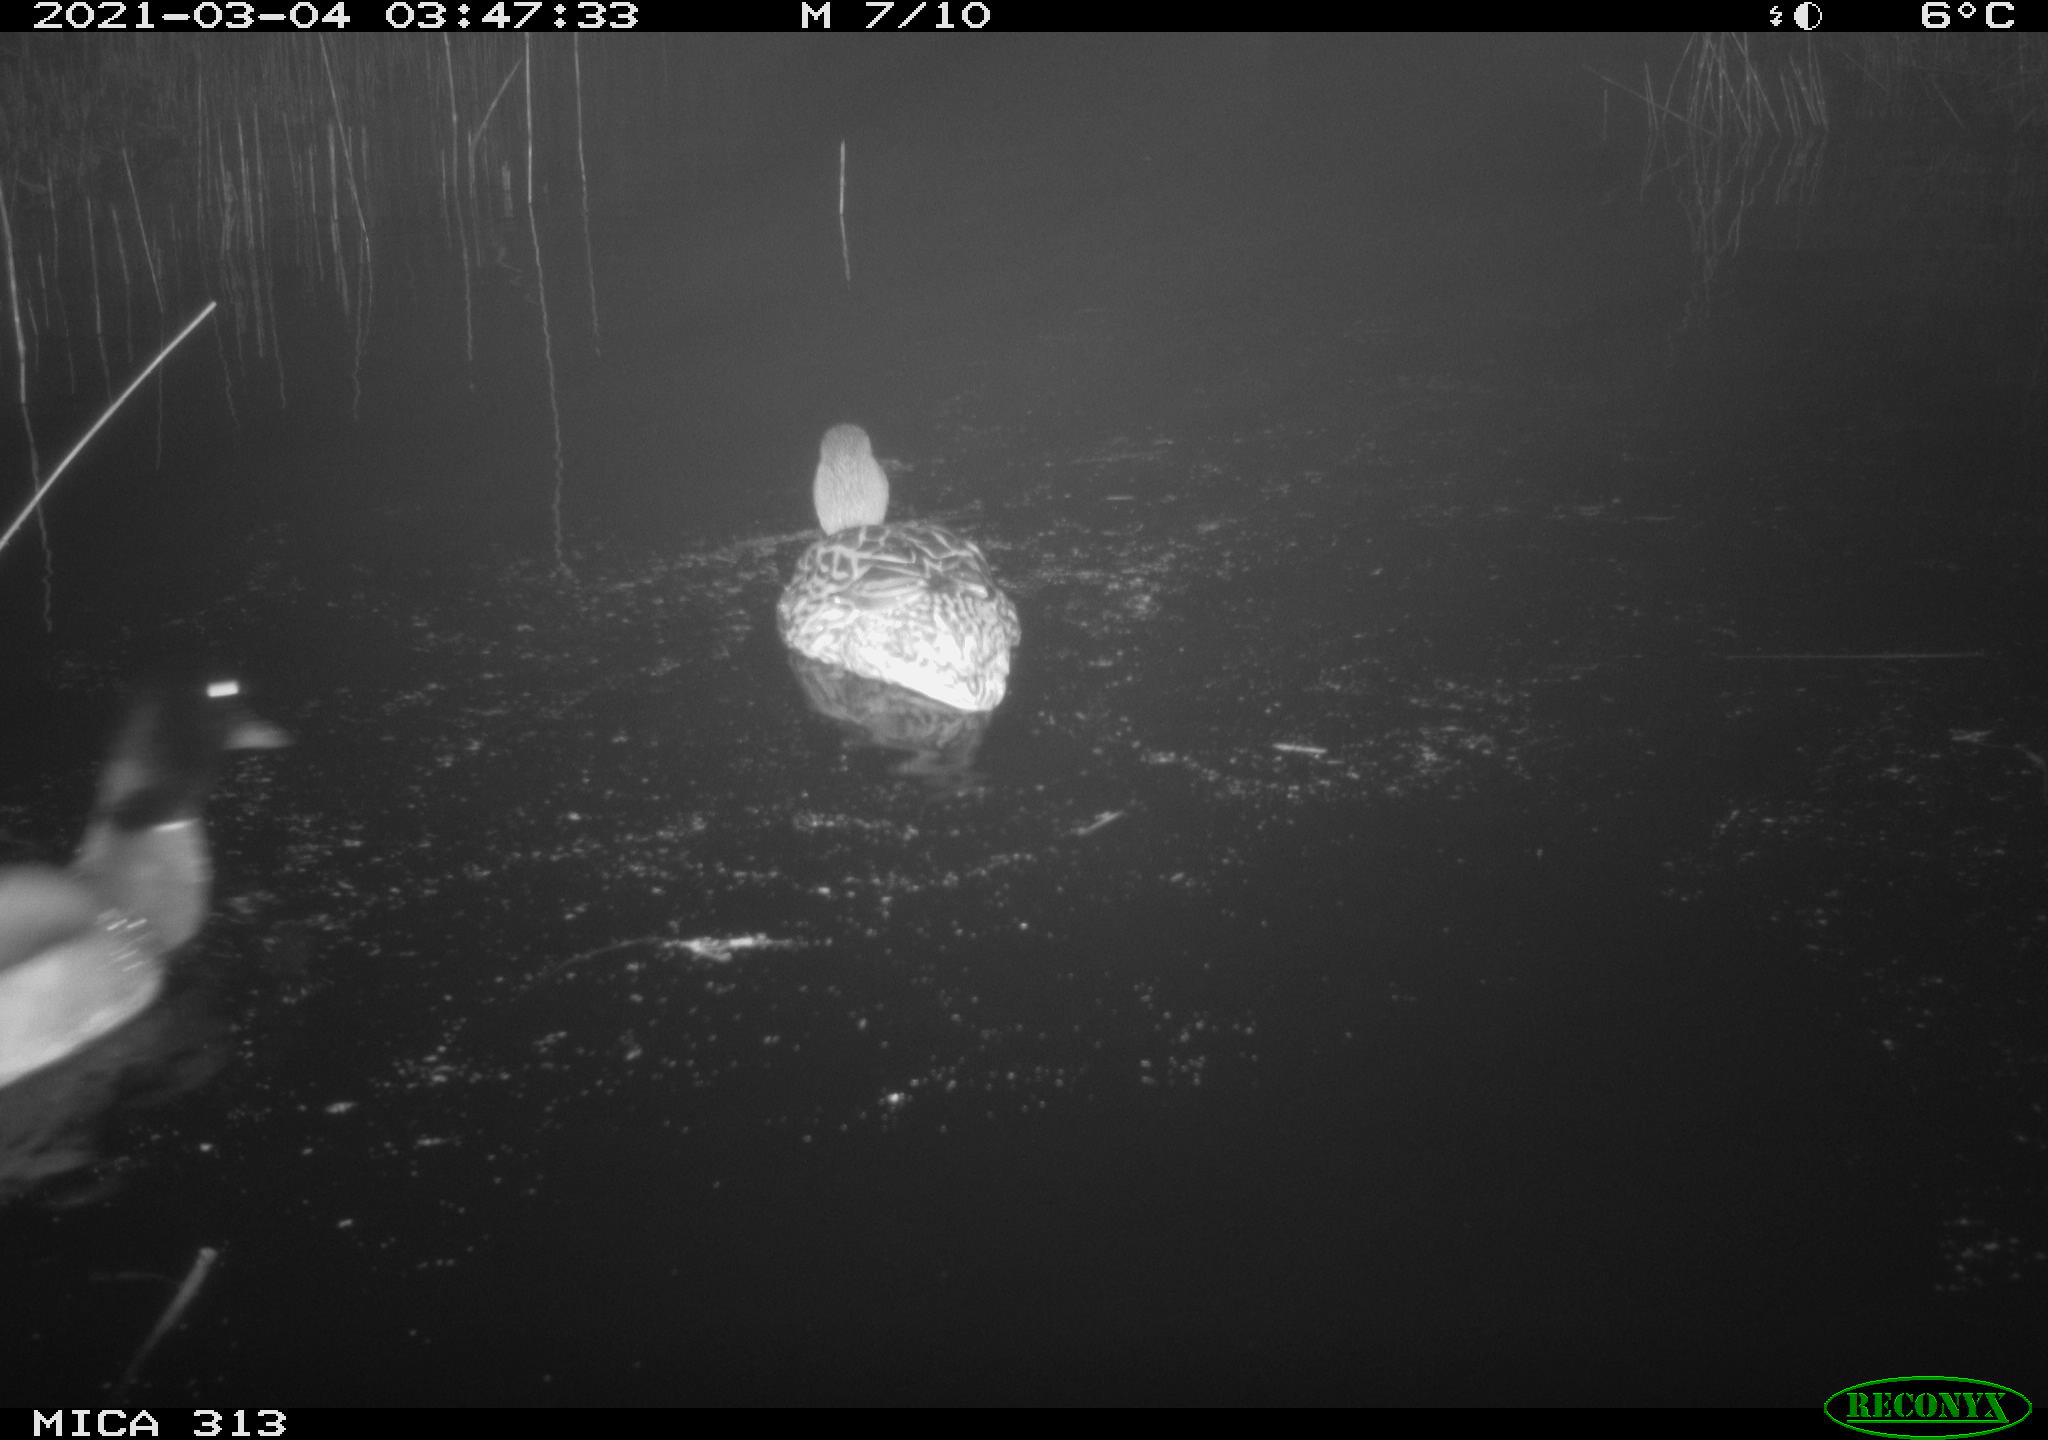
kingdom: Animalia
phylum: Chordata
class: Aves
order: Anseriformes
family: Anatidae
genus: Anas
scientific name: Anas platyrhynchos
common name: Mallard
